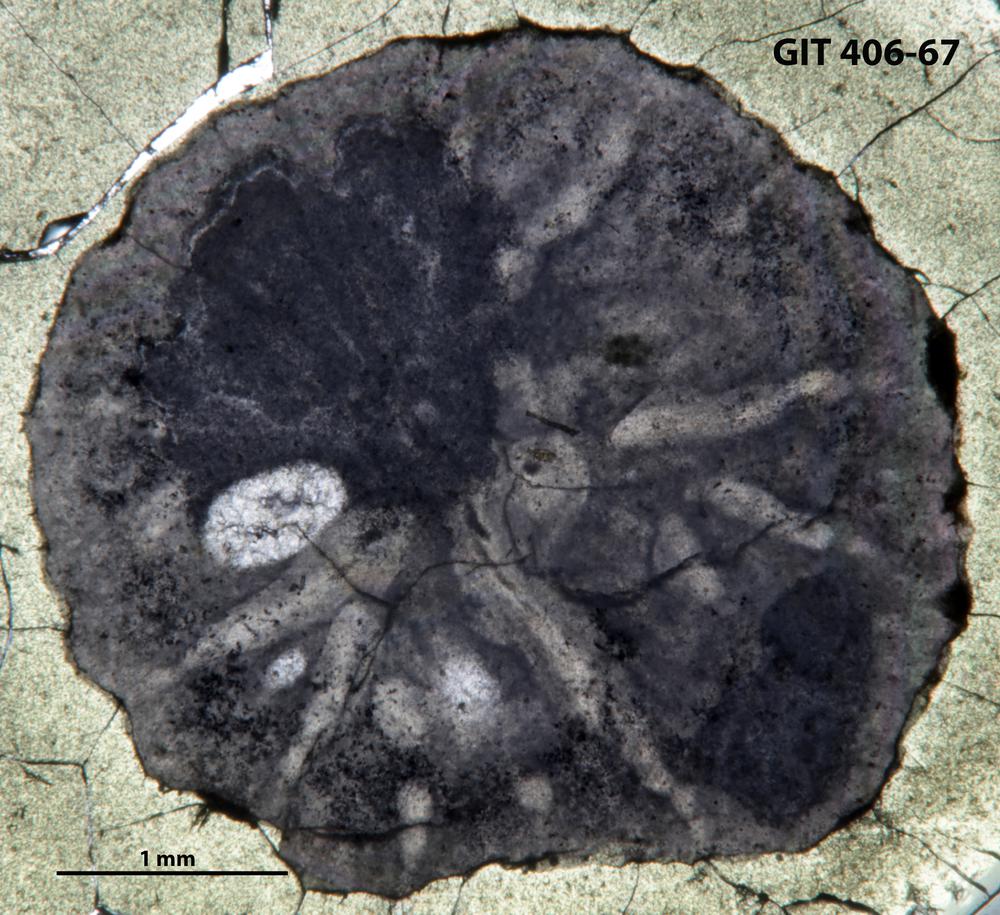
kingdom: Animalia
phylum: Cnidaria
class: Anthozoa
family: Streptelasmatidae
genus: Grewingkia
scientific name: Grewingkia
